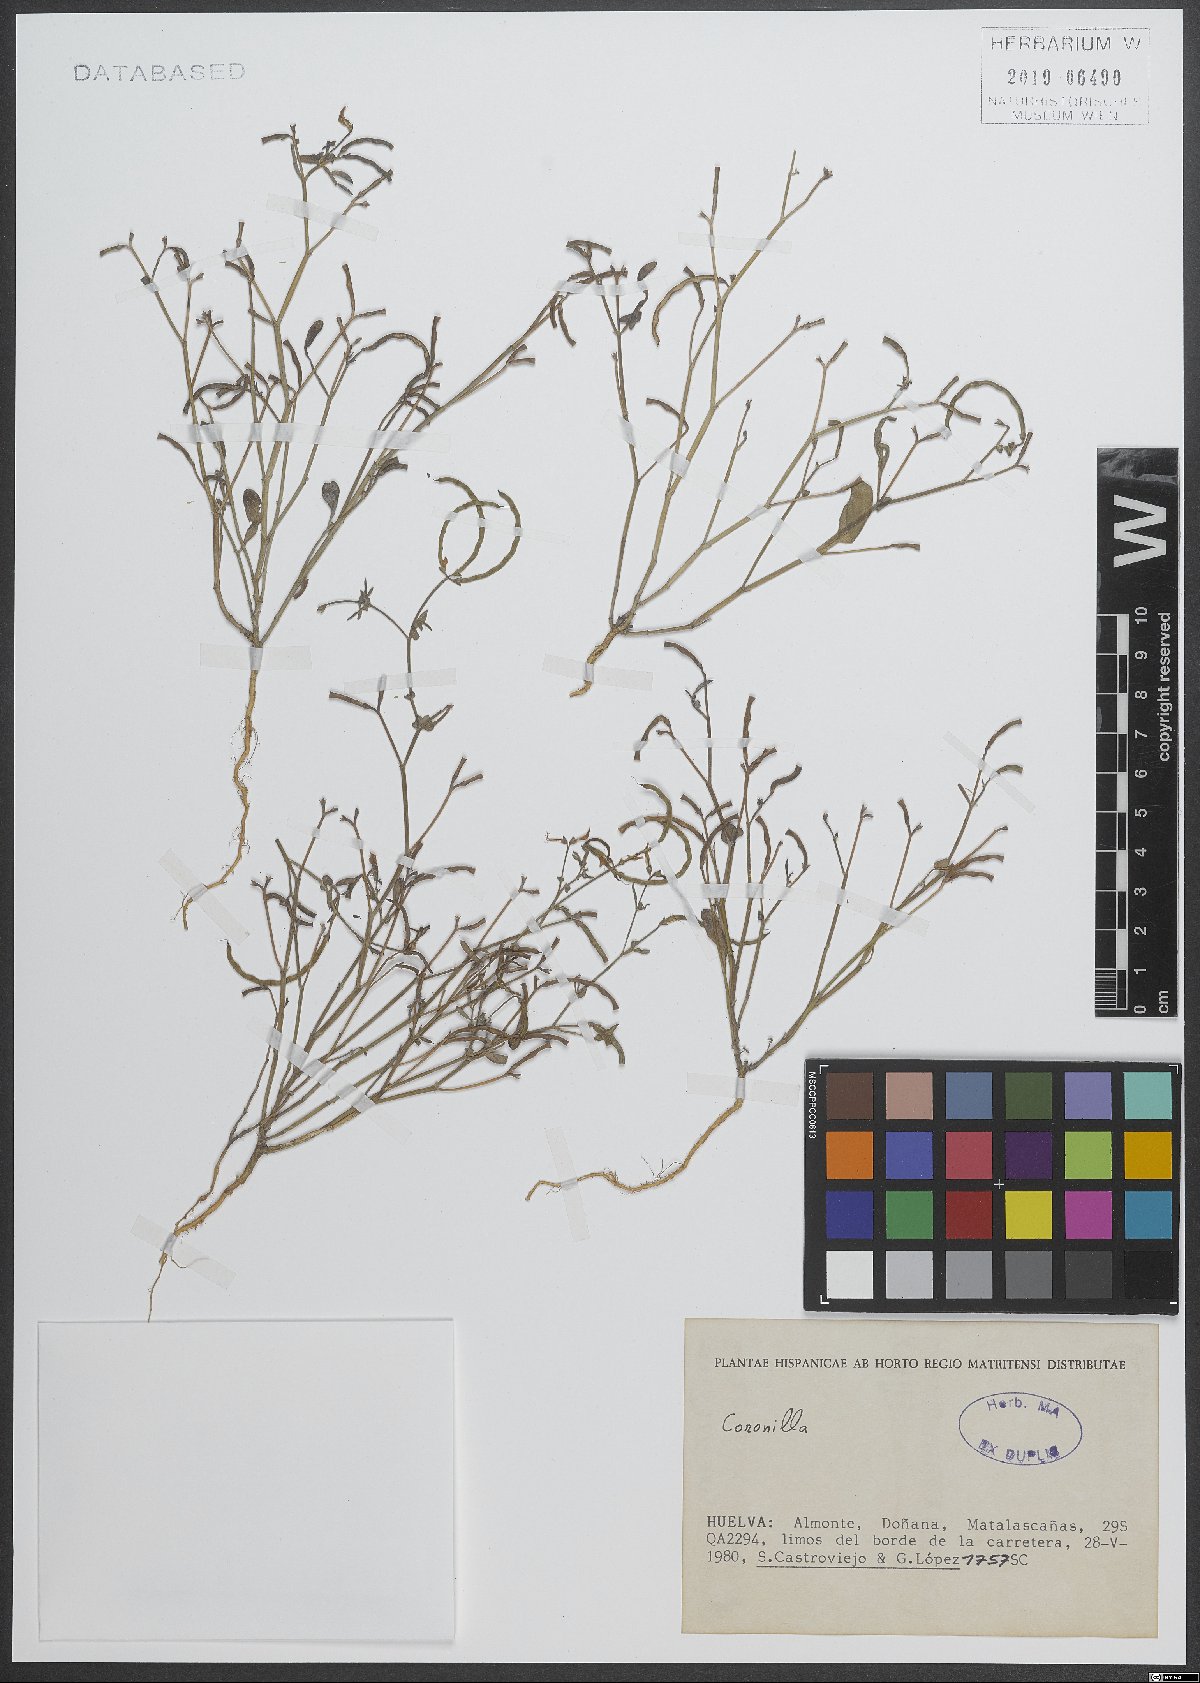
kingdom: Plantae
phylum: Tracheophyta
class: Magnoliopsida
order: Fabales
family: Fabaceae
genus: Coronilla
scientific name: Coronilla
